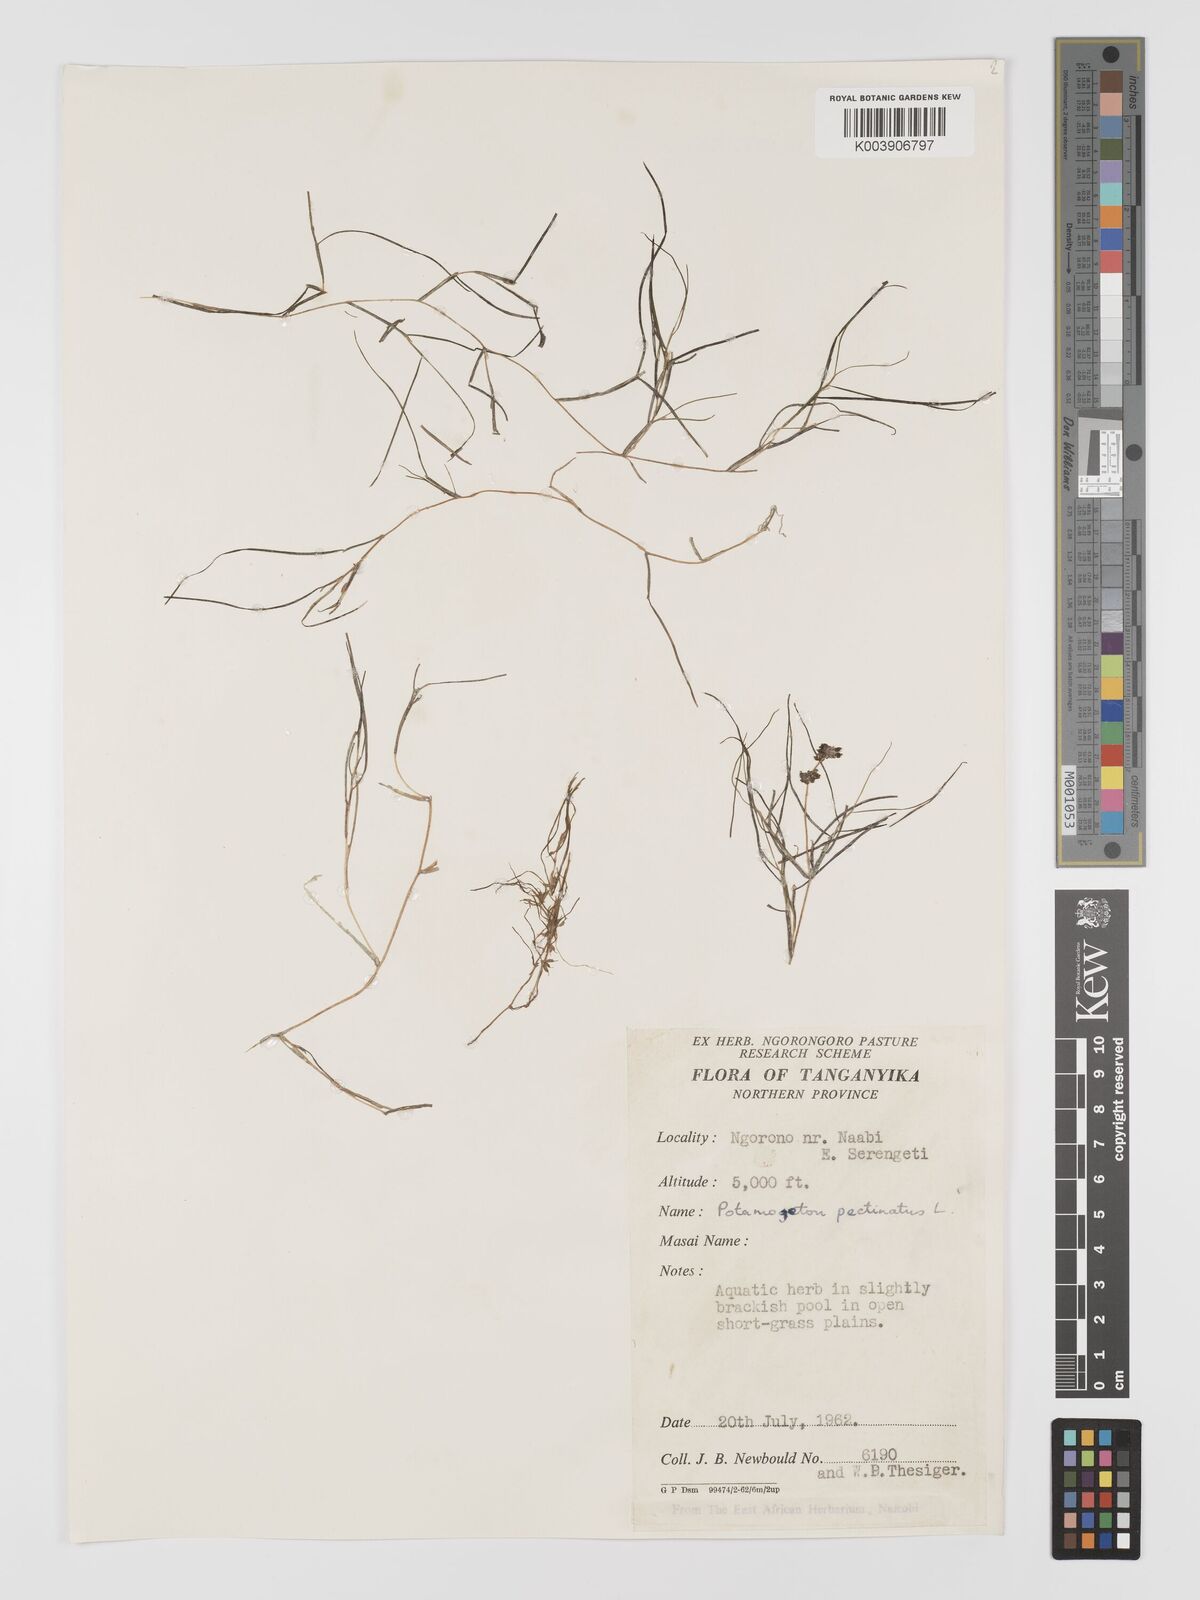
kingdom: Plantae
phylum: Tracheophyta
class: Liliopsida
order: Alismatales
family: Potamogetonaceae
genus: Stuckenia
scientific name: Stuckenia pectinata
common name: Sago pondweed
